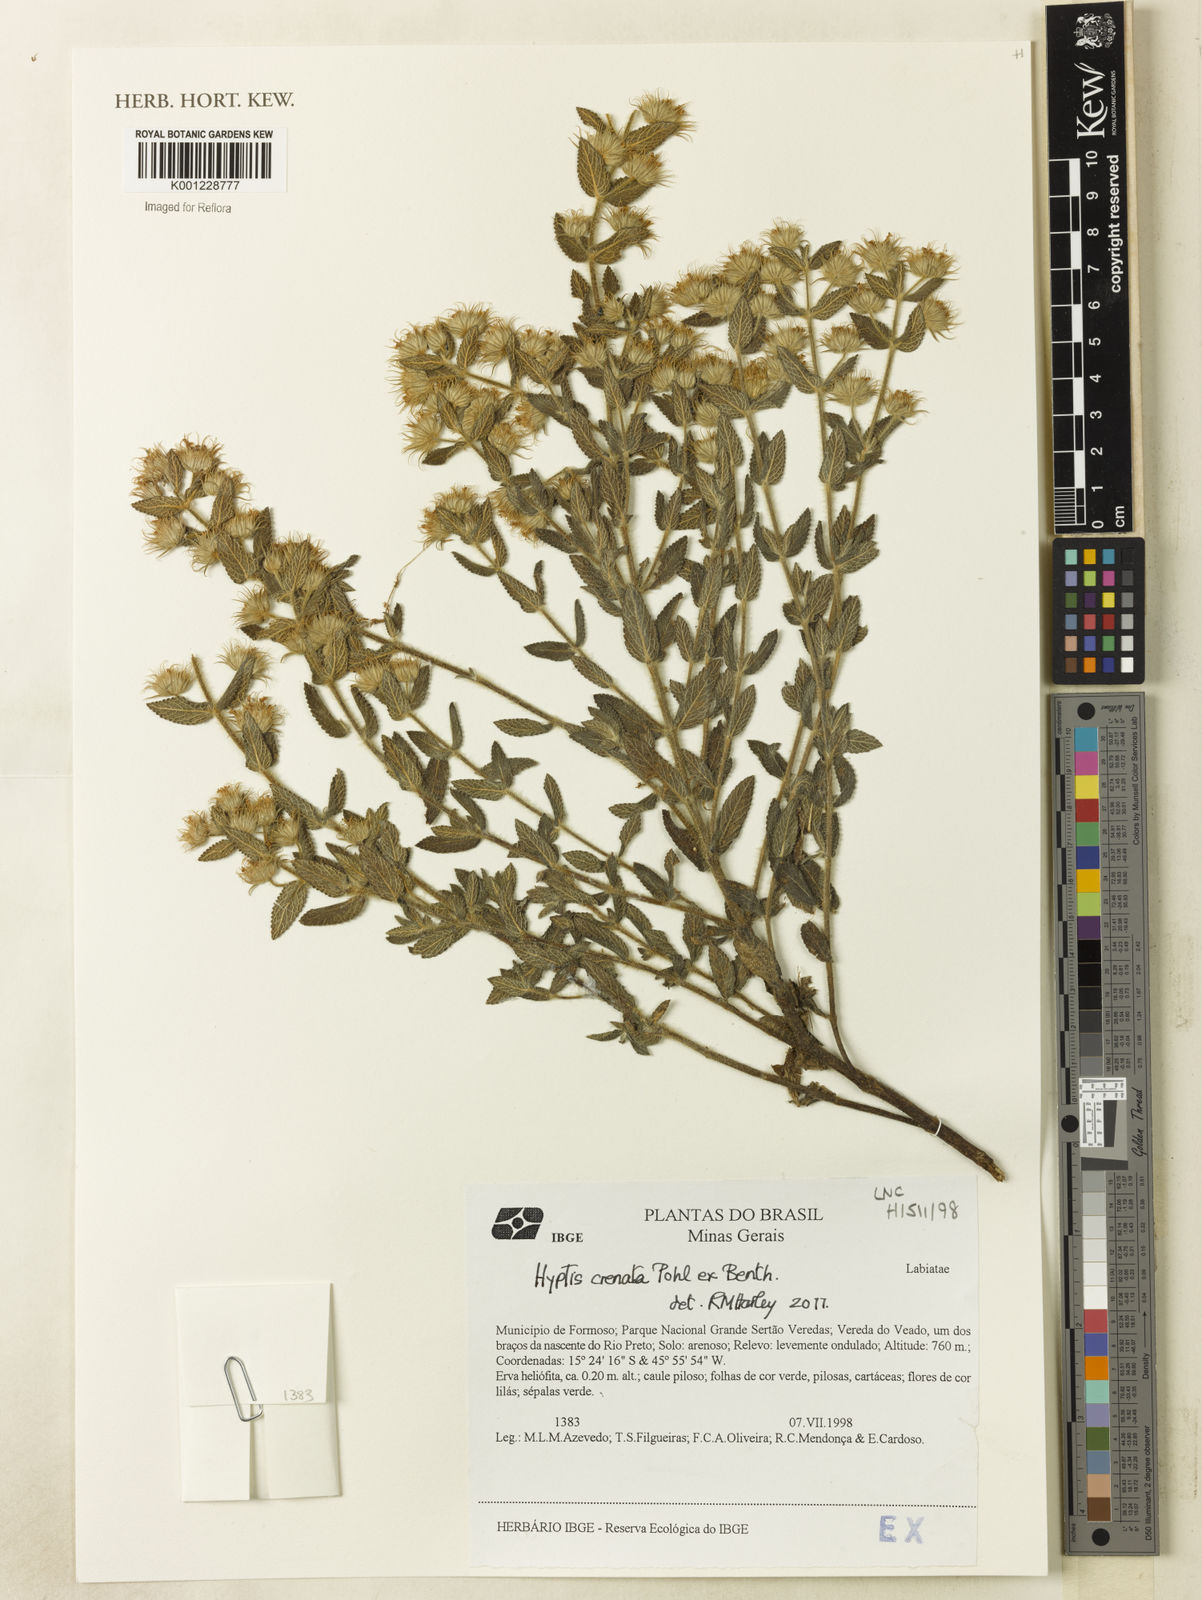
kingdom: Plantae
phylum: Tracheophyta
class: Magnoliopsida
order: Lamiales
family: Lamiaceae
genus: Hyptis
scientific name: Hyptis crenata
